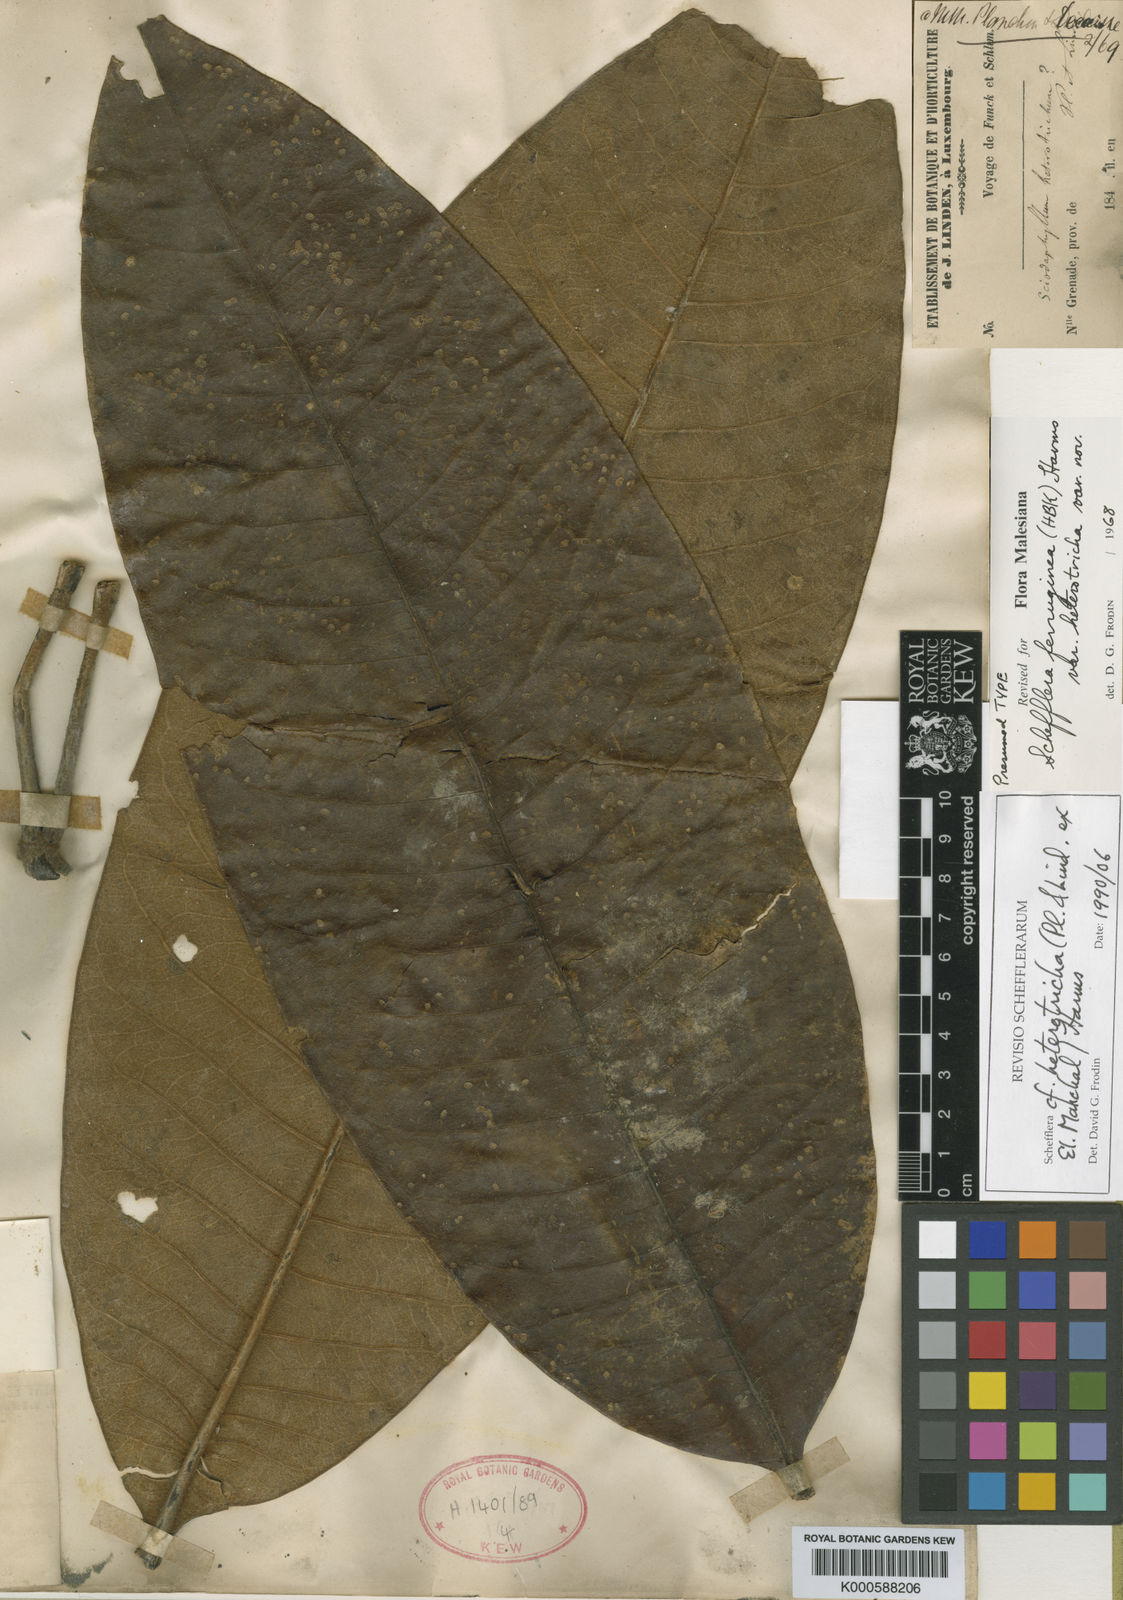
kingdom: Plantae
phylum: Tracheophyta
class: Magnoliopsida
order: Apiales
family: Araliaceae
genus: Sciodaphyllum
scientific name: Sciodaphyllum heterotrichum
